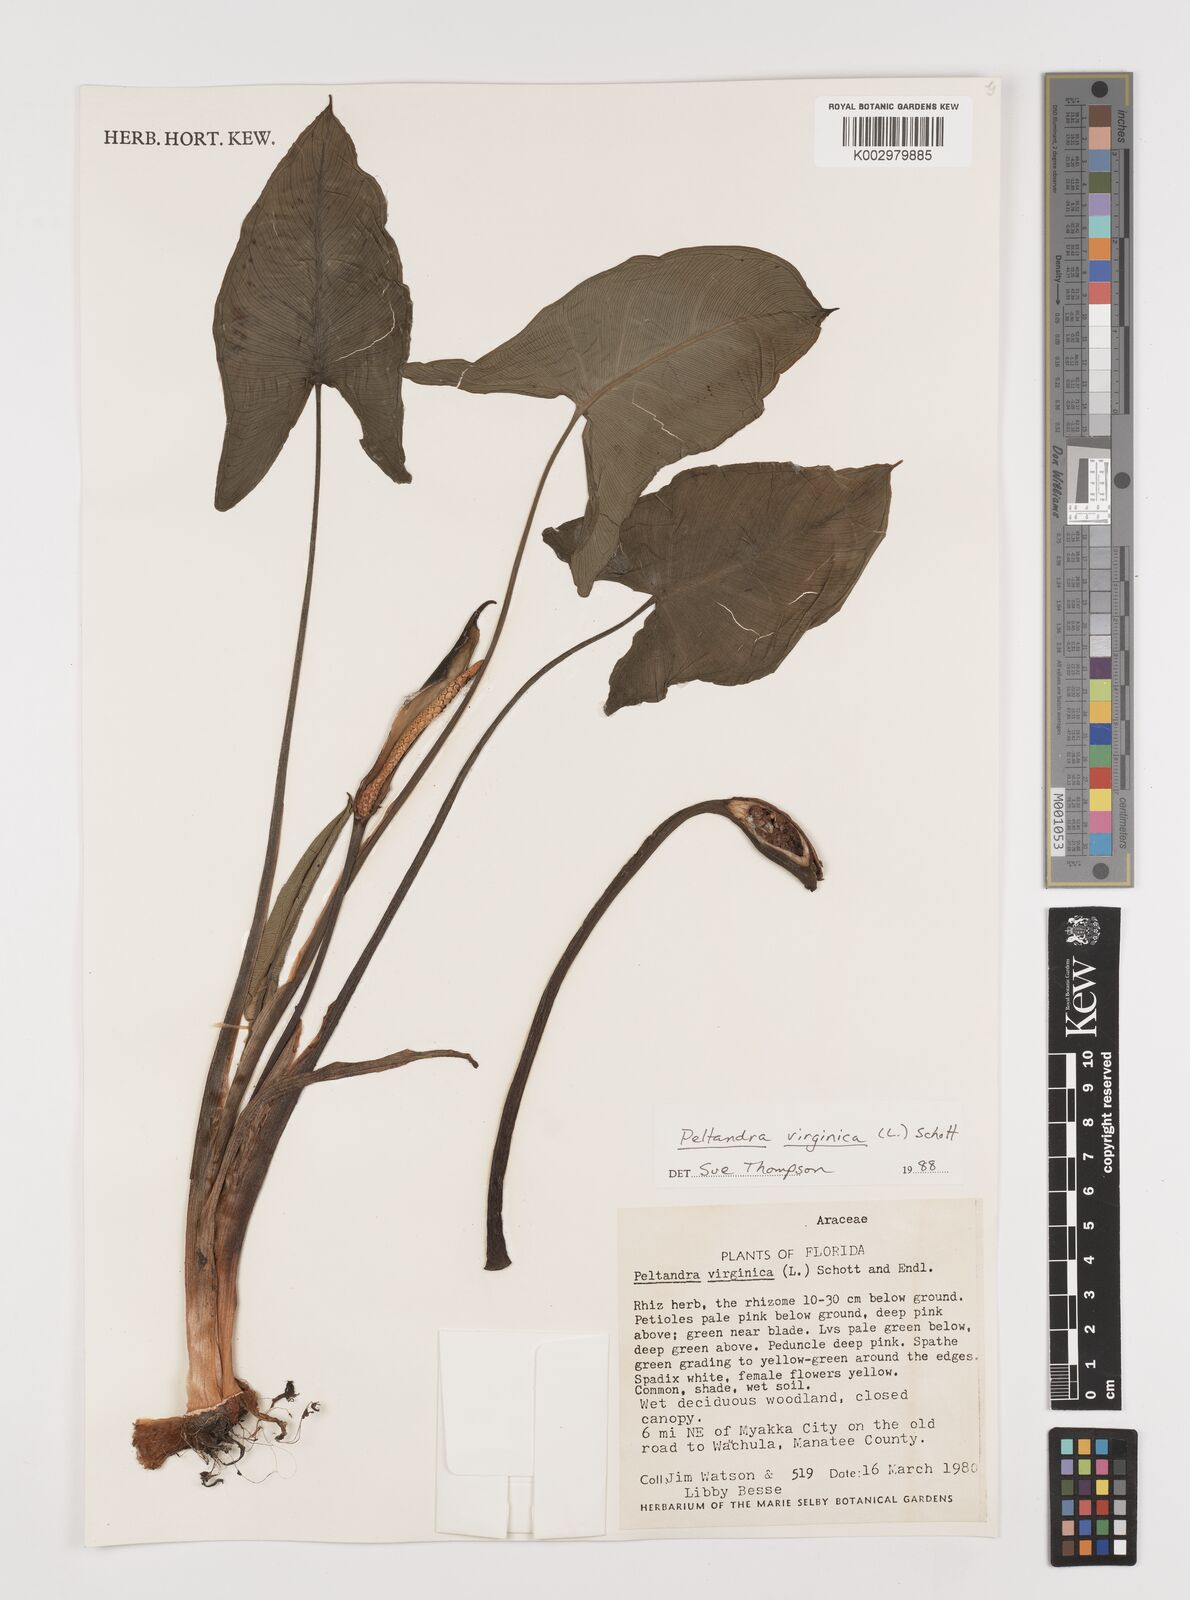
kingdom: Plantae
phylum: Tracheophyta
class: Liliopsida
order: Alismatales
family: Araceae
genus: Peltandra
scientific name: Peltandra virginica
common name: Arrow arum
